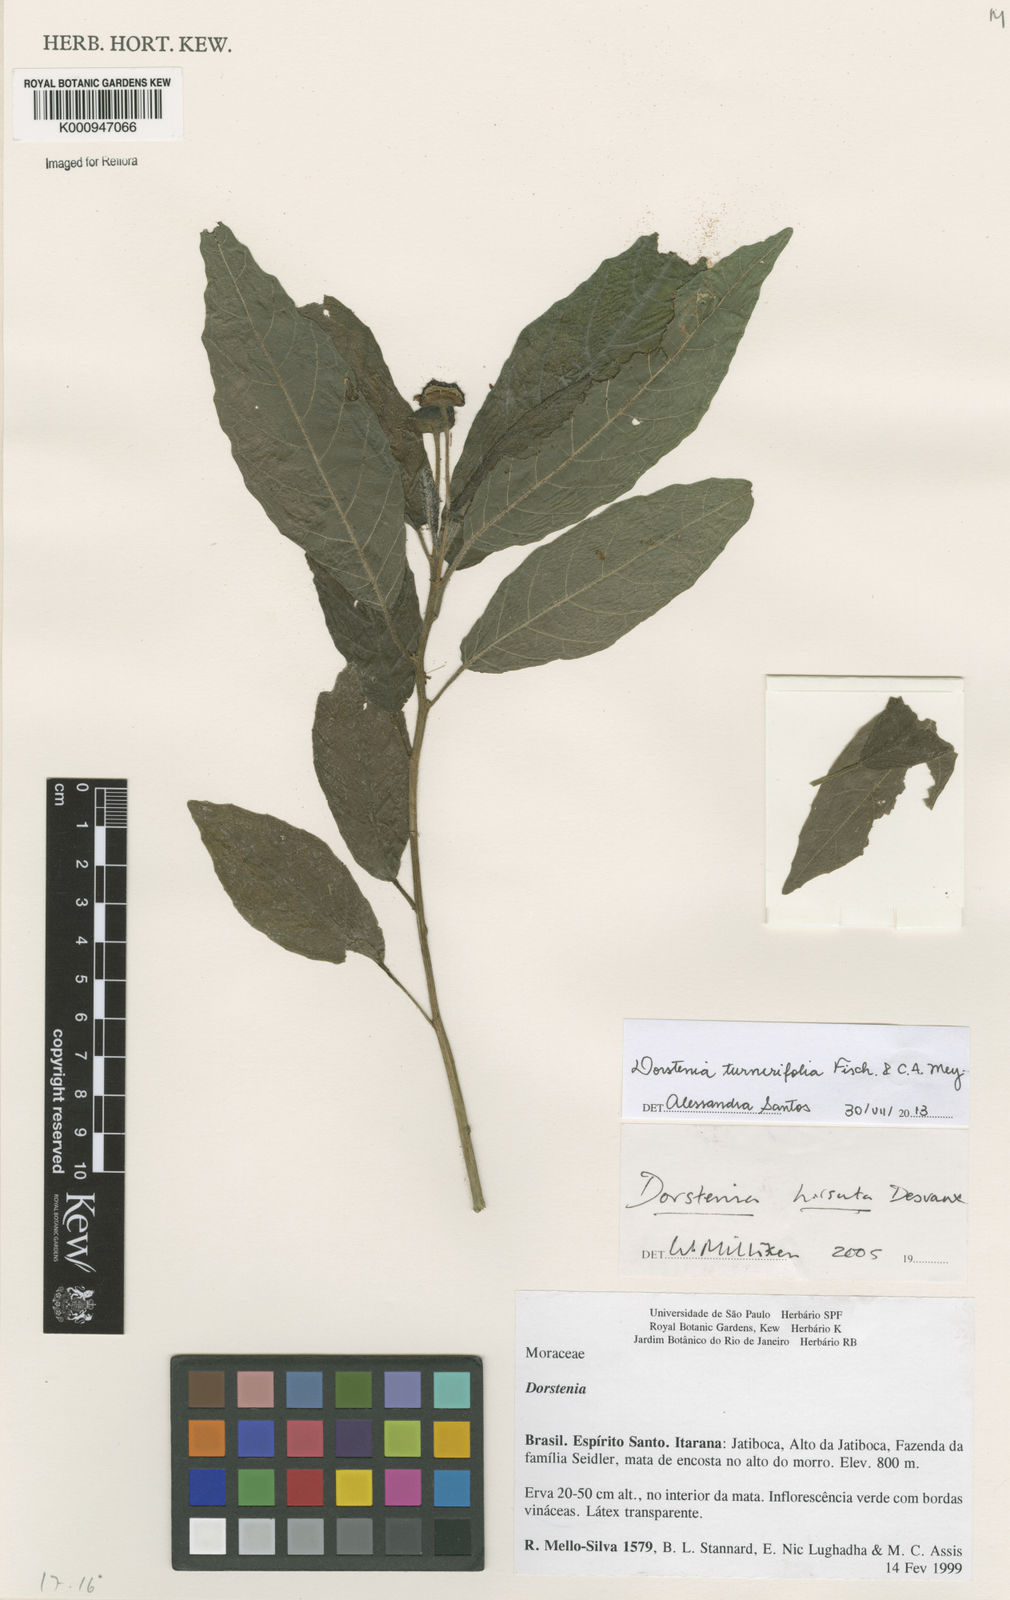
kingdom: Plantae
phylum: Tracheophyta
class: Magnoliopsida
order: Rosales
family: Moraceae
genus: Dorstenia
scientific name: Dorstenia turnerifolia
